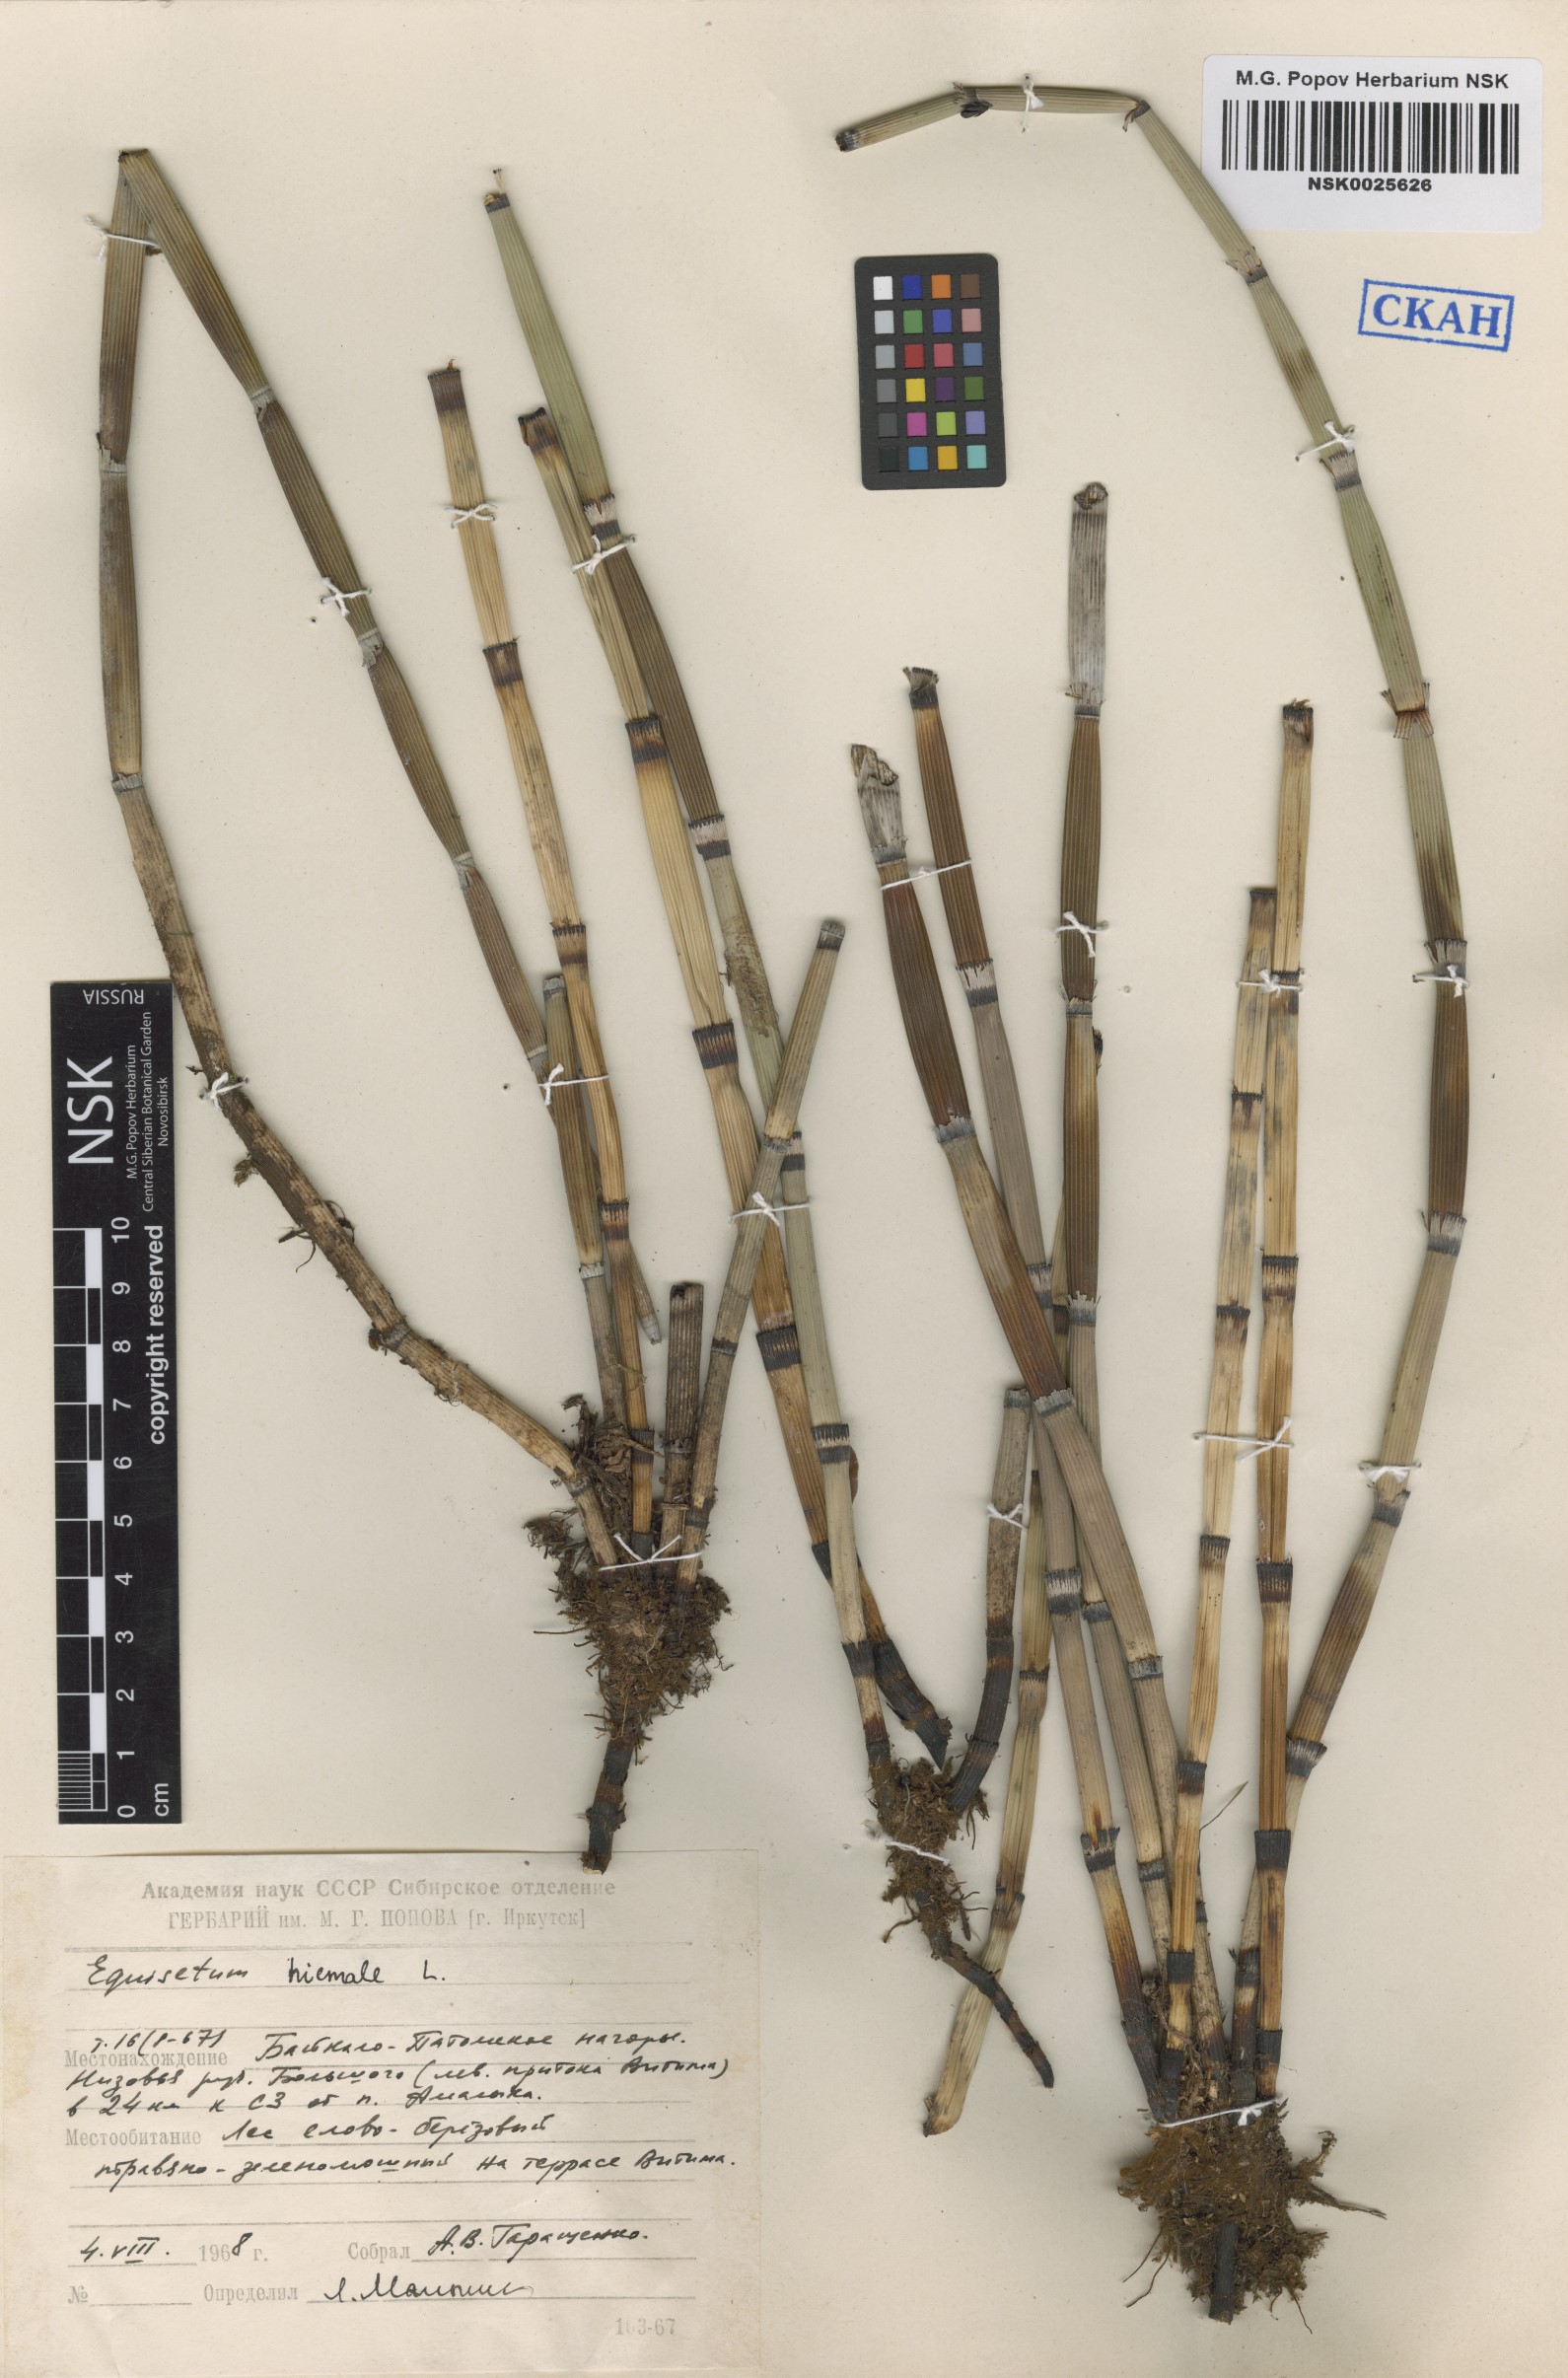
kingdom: Plantae
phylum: Tracheophyta
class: Polypodiopsida
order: Equisetales
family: Equisetaceae
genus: Equisetum
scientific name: Equisetum hyemale
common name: Rough horsetail
